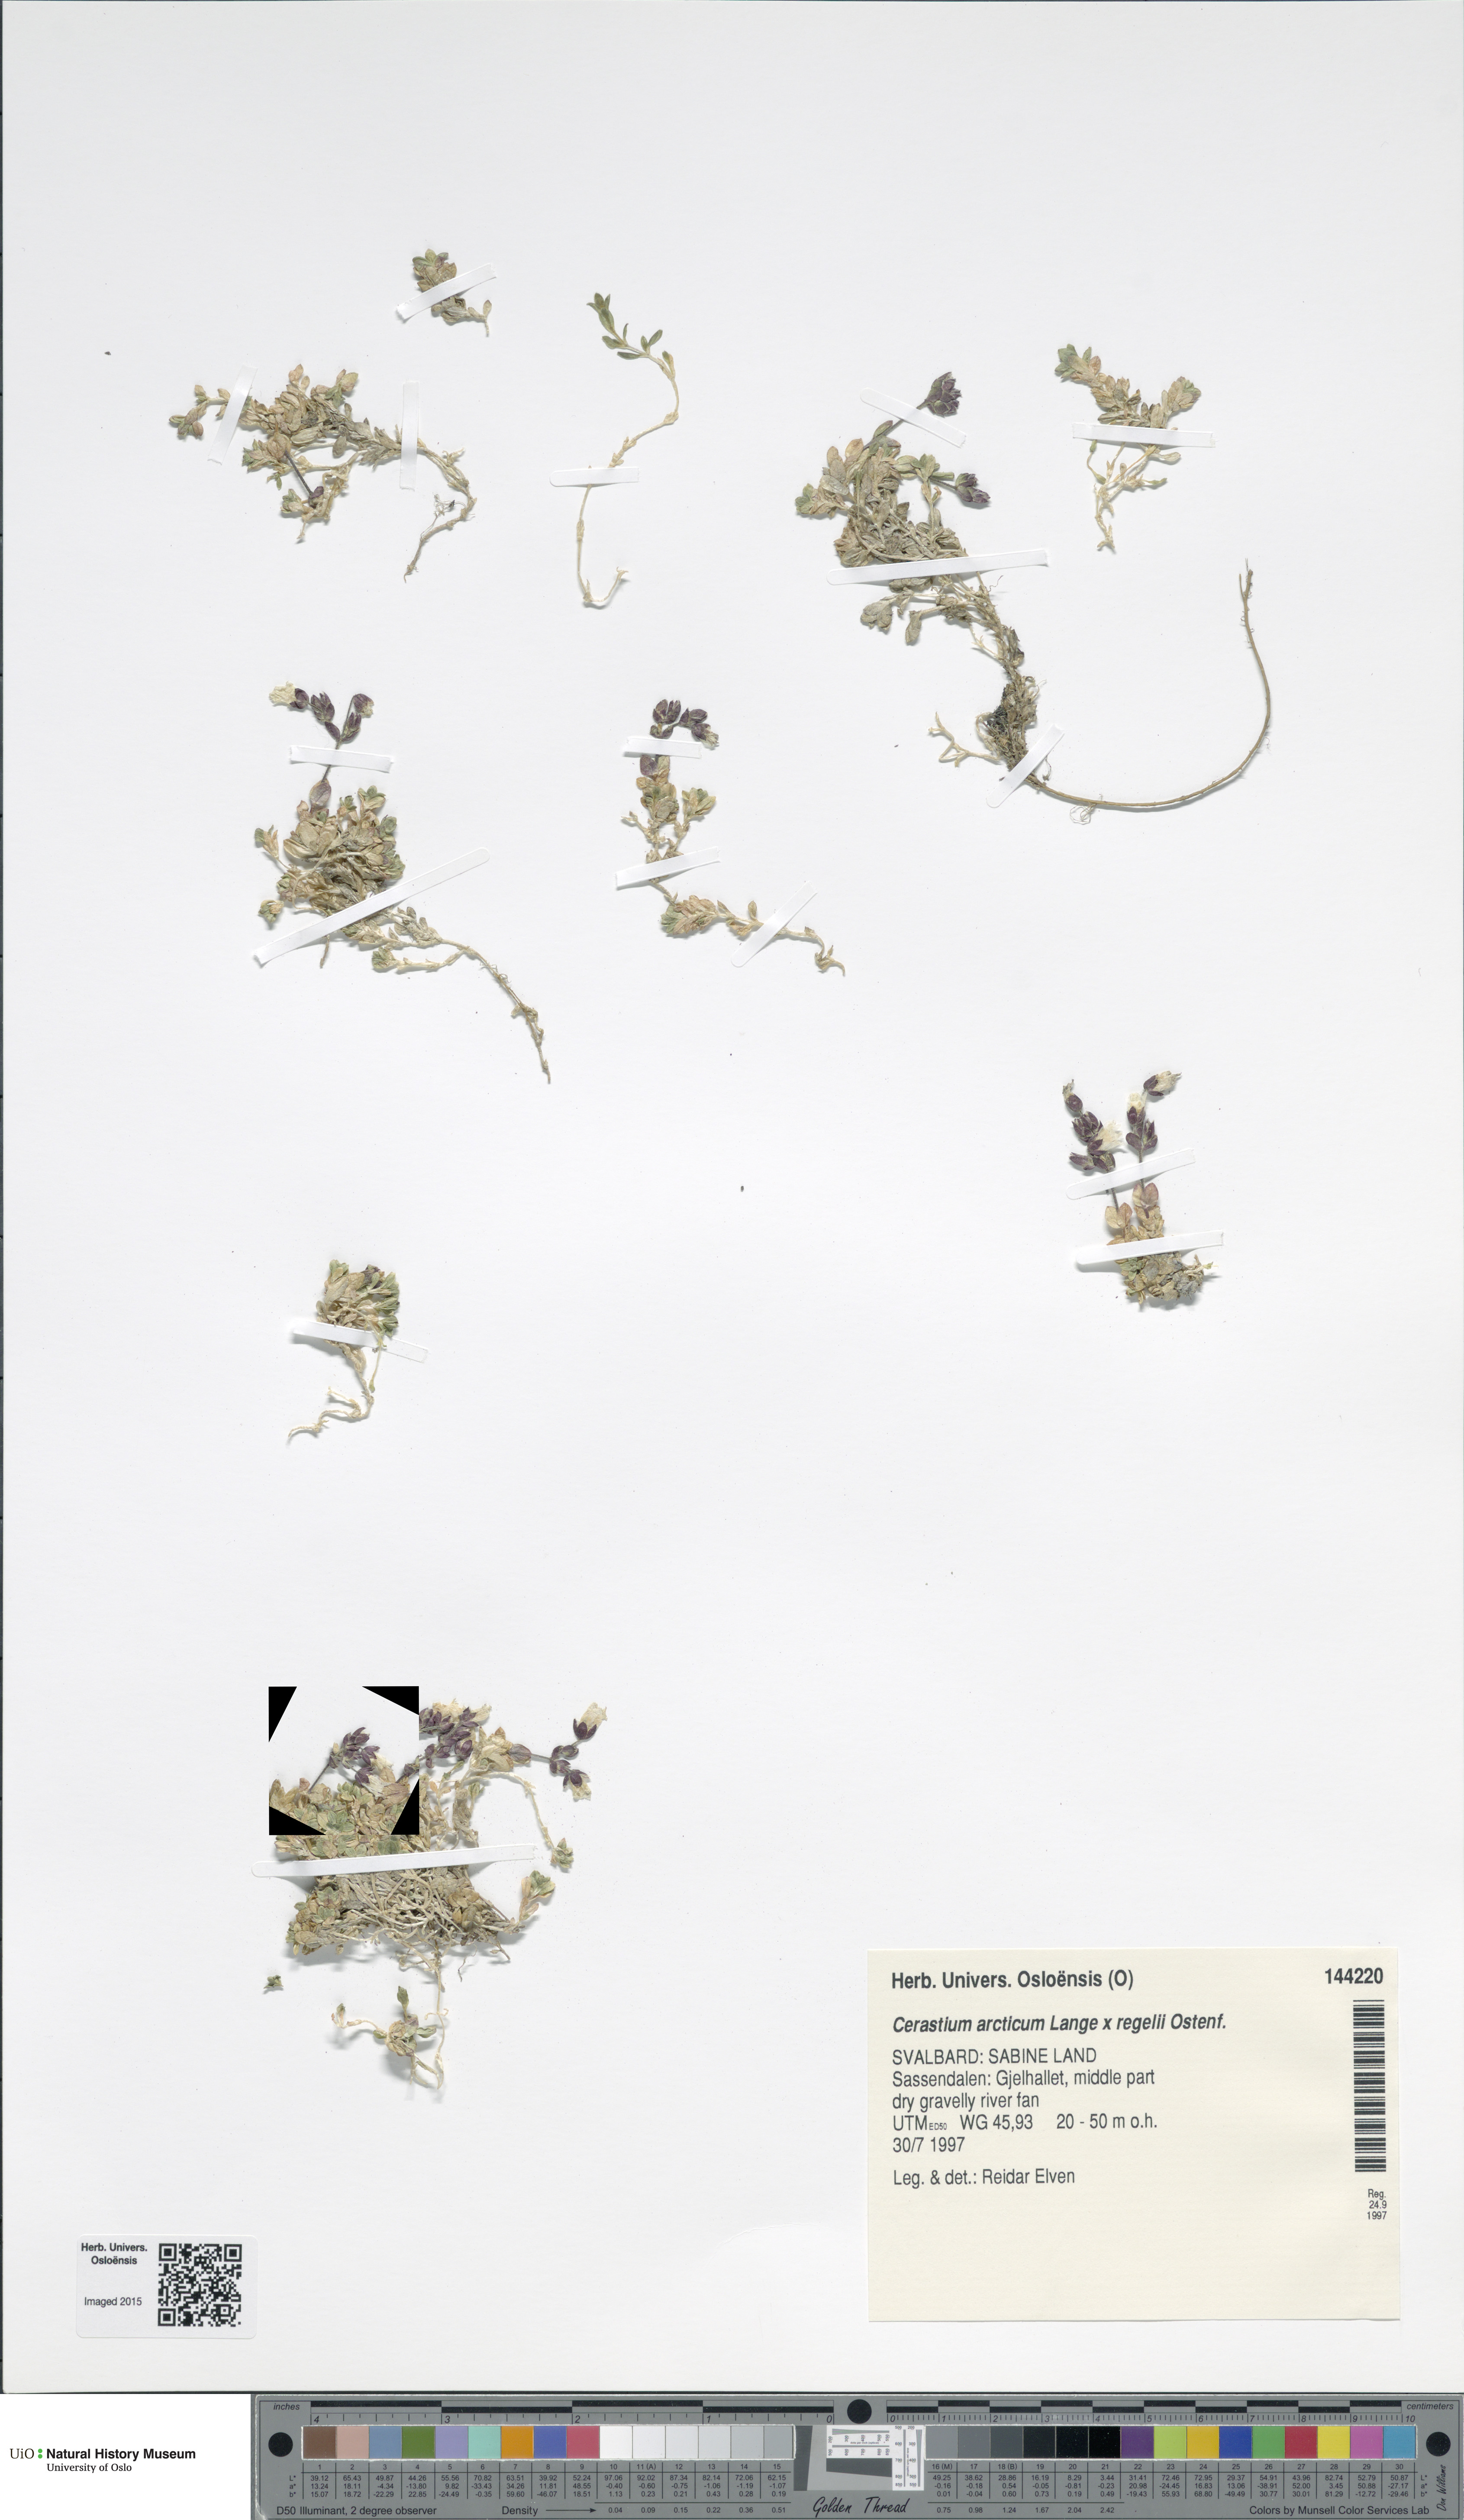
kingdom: Plantae
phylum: Tracheophyta
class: Magnoliopsida
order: Caryophyllales
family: Caryophyllaceae
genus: Cerastium
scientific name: Cerastium
